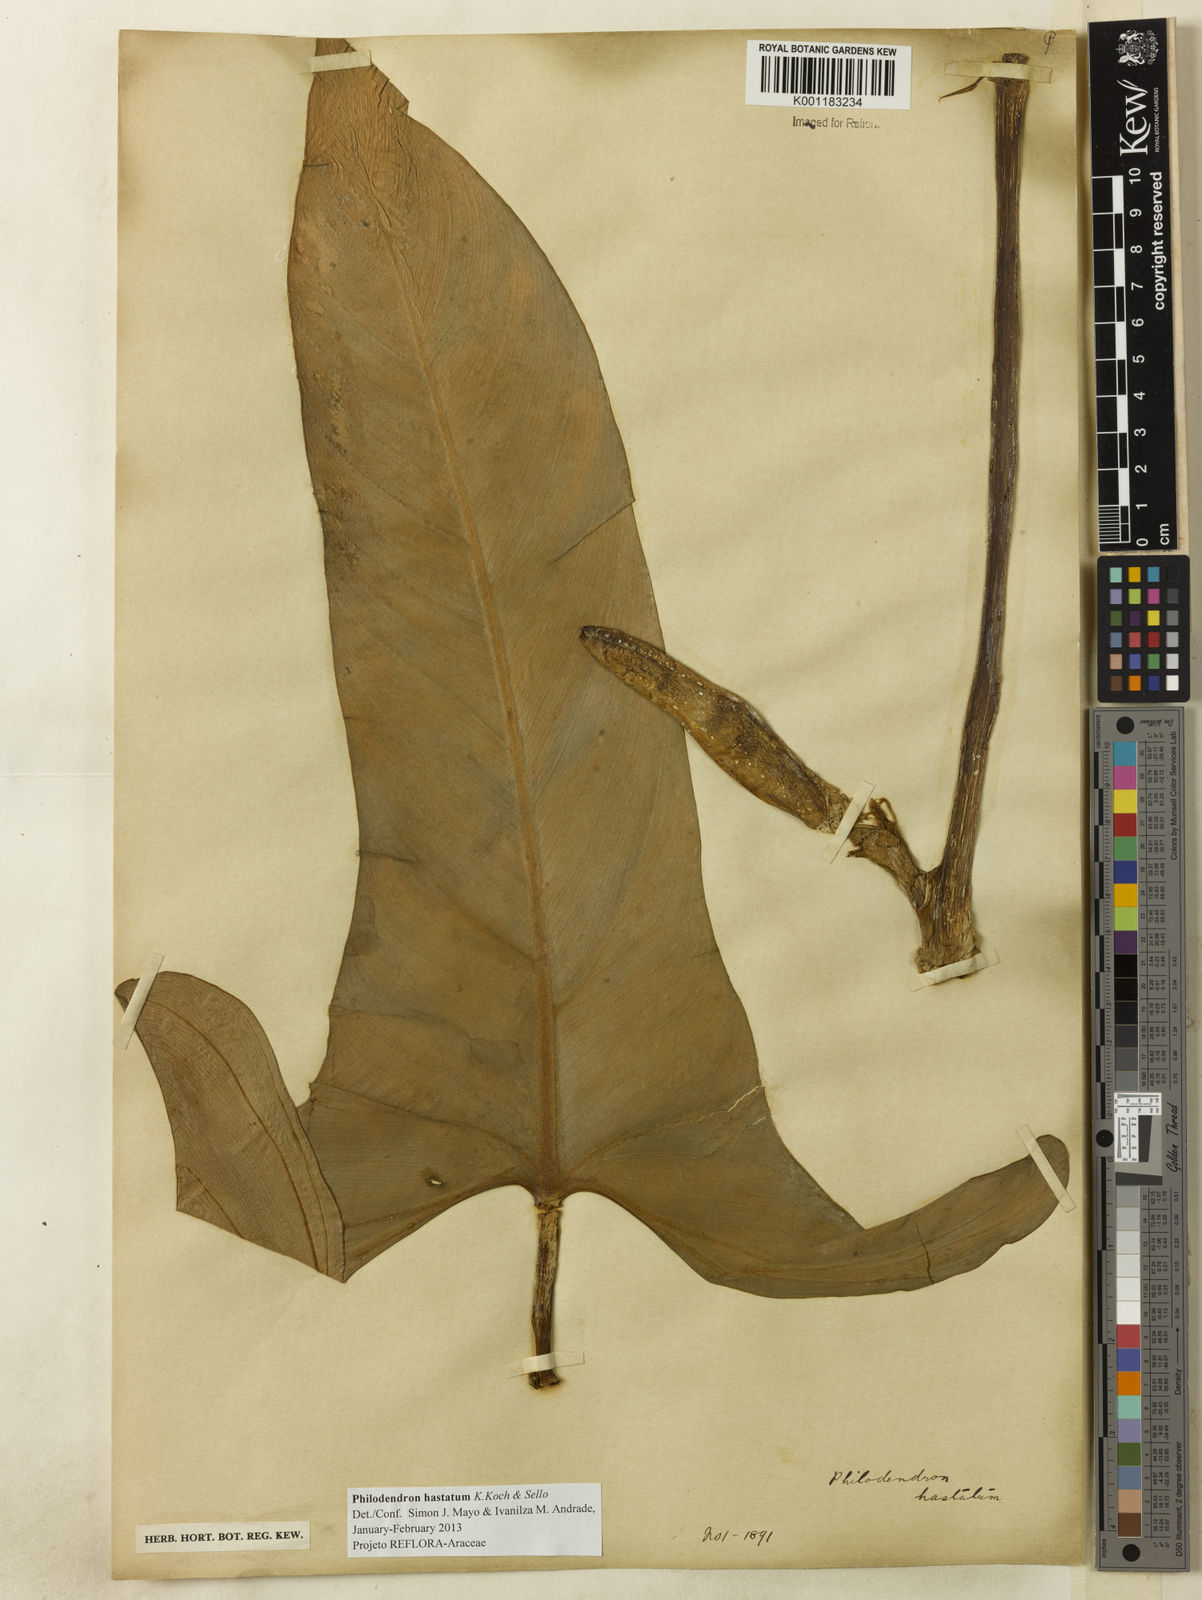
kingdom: Plantae
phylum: Tracheophyta
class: Liliopsida
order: Alismatales
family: Araceae
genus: Philodendron
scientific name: Philodendron hastatum
